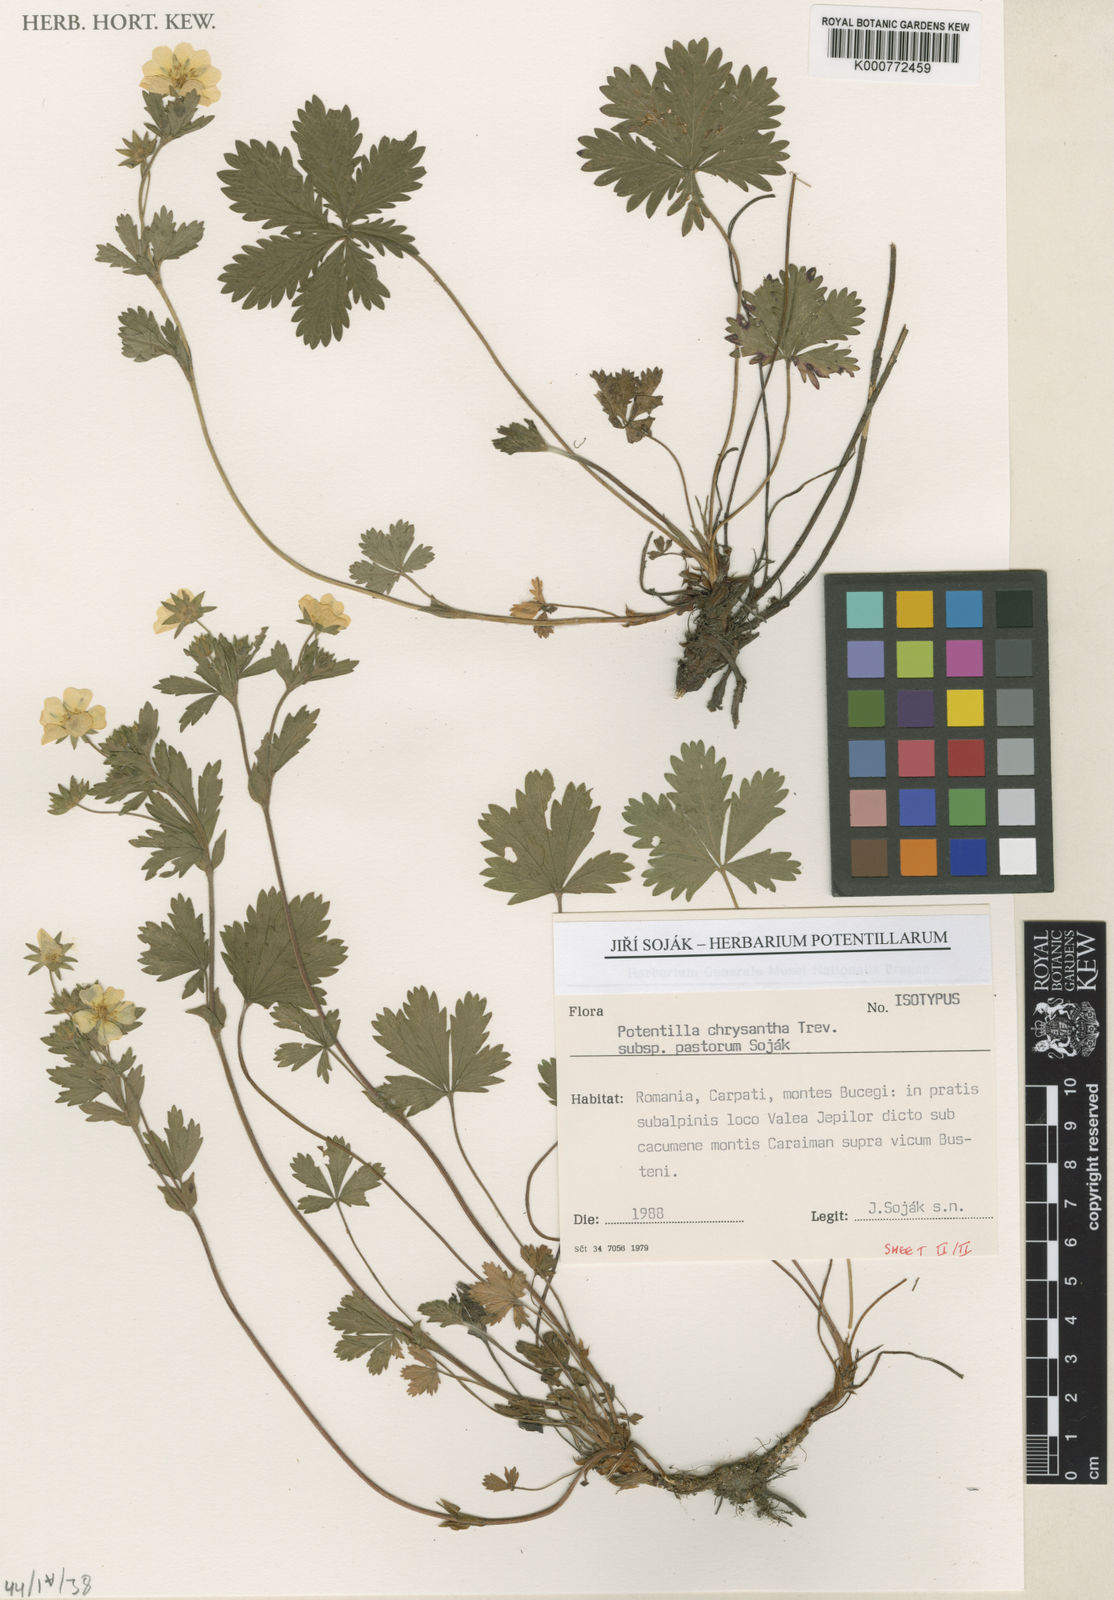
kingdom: Plantae
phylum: Tracheophyta
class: Magnoliopsida
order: Rosales
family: Rosaceae
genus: Potentilla
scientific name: Potentilla chrysantha
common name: Thuringian cinquefoil
